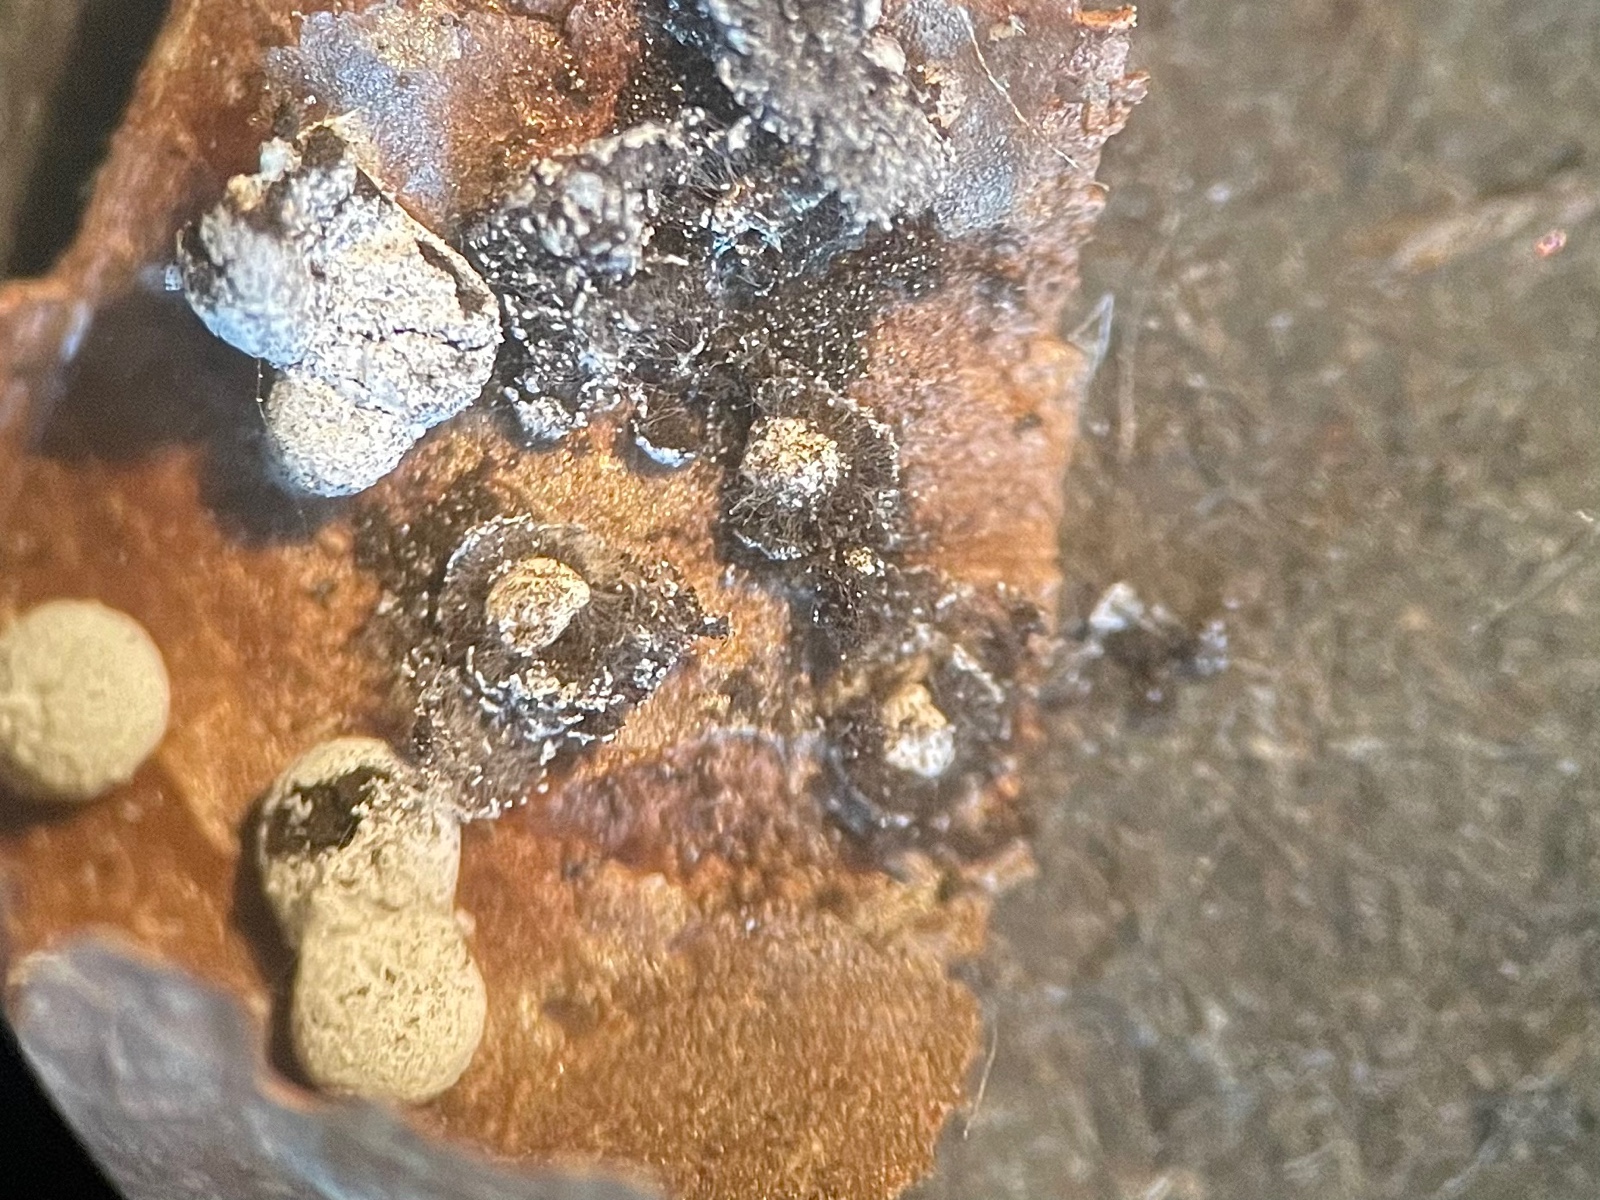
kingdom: Protozoa
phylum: Mycetozoa
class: Myxomycetes
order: Physarales
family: Didymiaceae
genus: Didymium
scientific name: Didymium squamulosum
